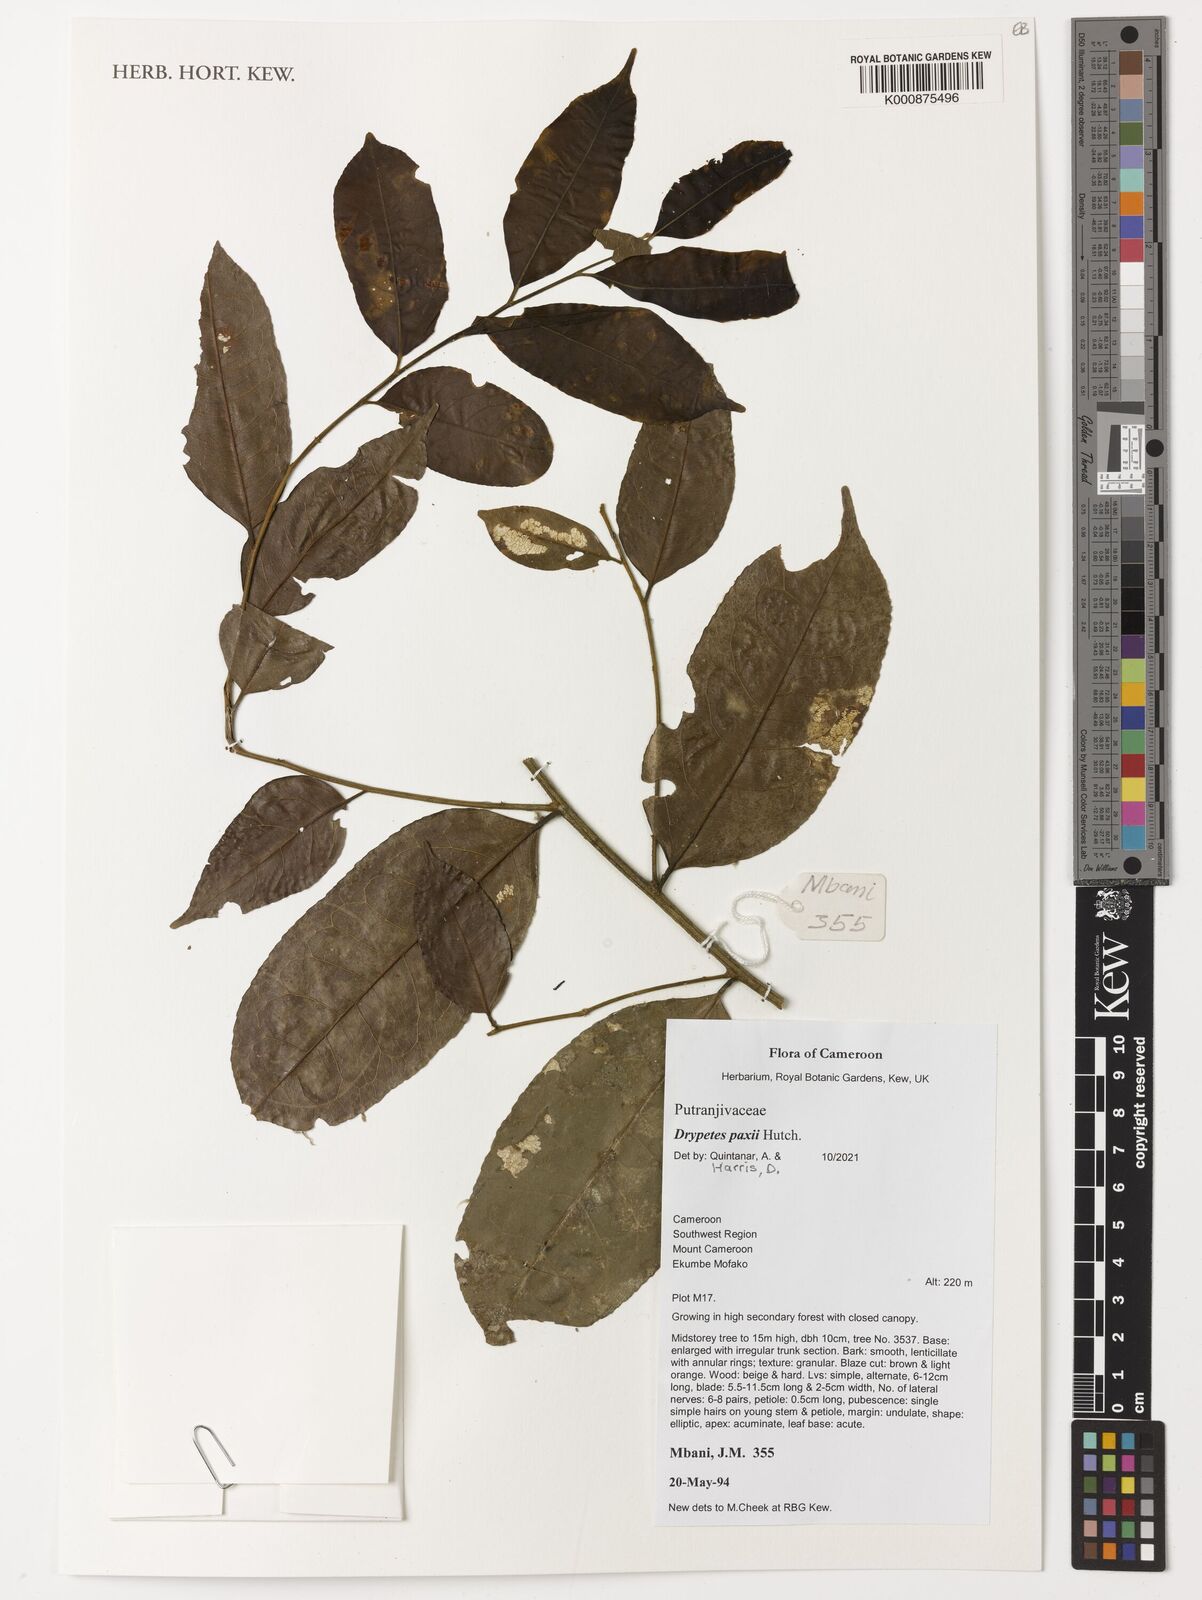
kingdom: Plantae
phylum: Tracheophyta
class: Magnoliopsida
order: Malpighiales
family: Putranjivaceae
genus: Drypetes
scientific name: Drypetes paxii
